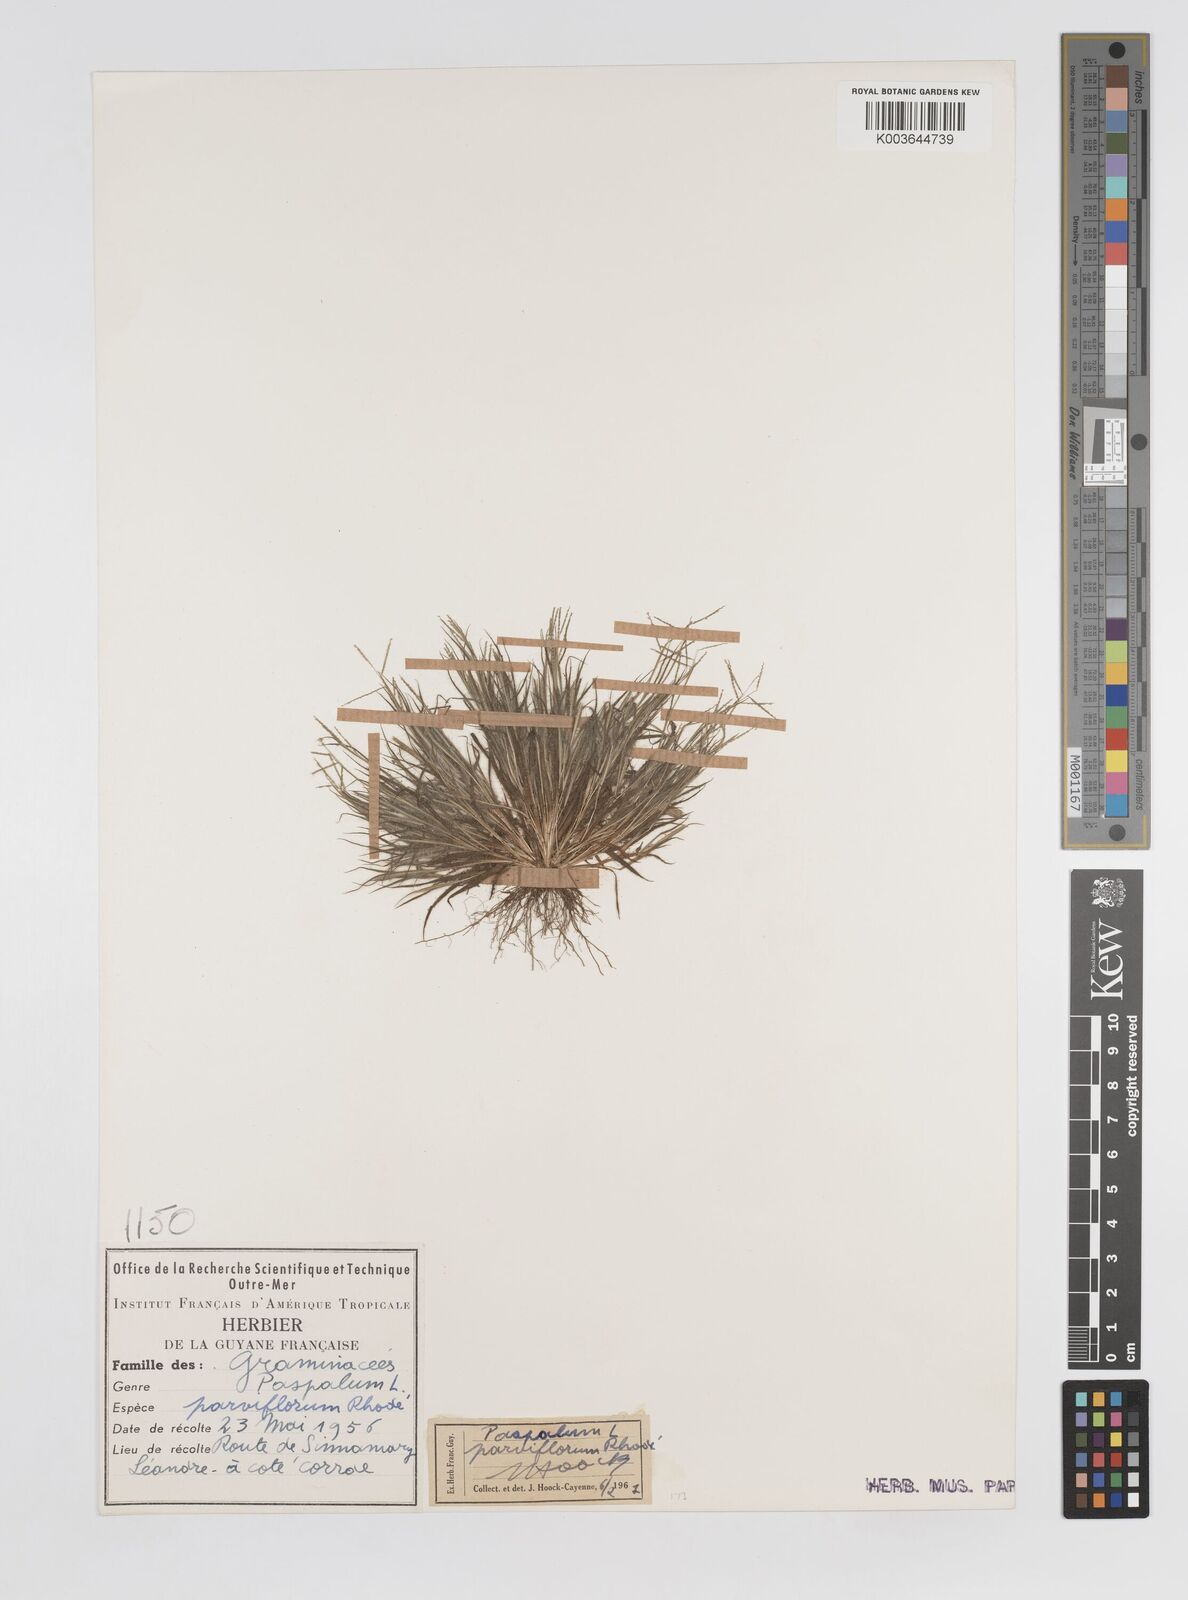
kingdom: Plantae
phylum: Tracheophyta
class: Liliopsida
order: Poales
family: Poaceae
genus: Paspalum
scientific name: Paspalum parviflorum
